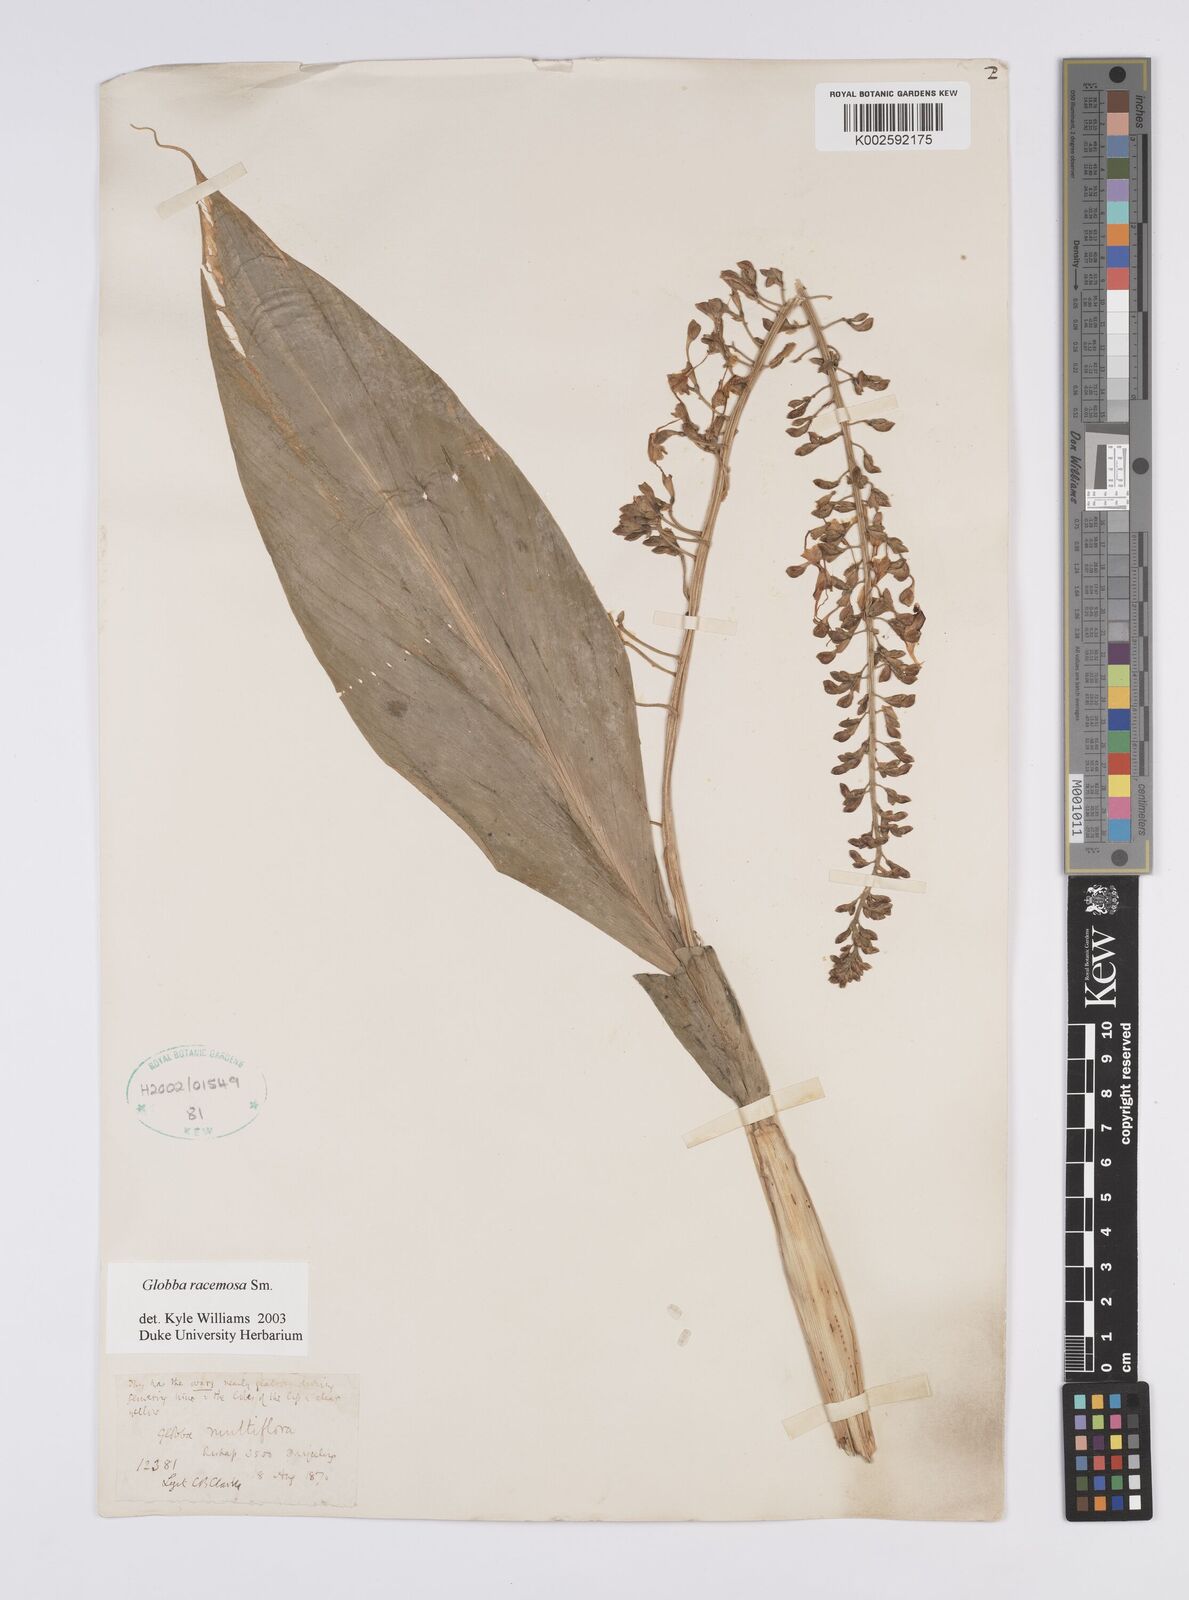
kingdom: Plantae
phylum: Tracheophyta
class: Liliopsida
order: Zingiberales
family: Zingiberaceae
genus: Globba
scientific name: Globba racemosa
